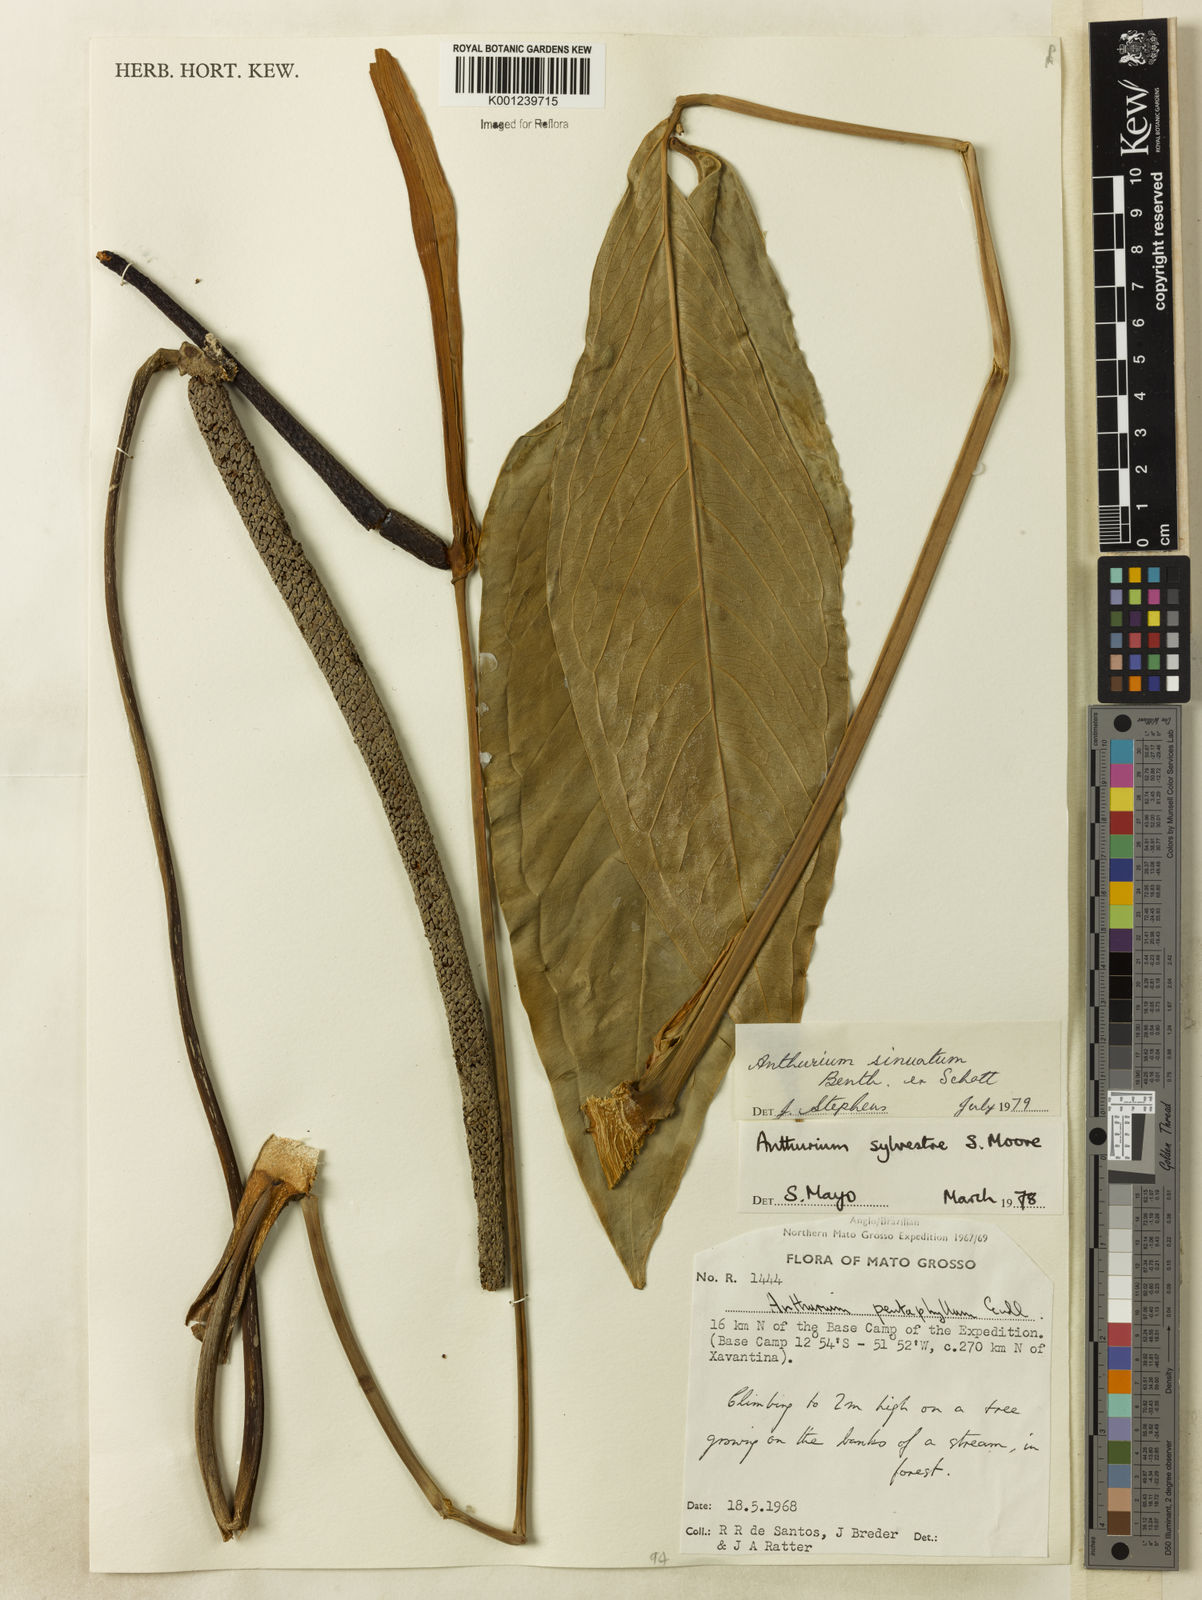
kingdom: Plantae
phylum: Tracheophyta
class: Liliopsida
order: Alismatales
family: Araceae
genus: Anthurium
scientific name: Anthurium sinuatum
